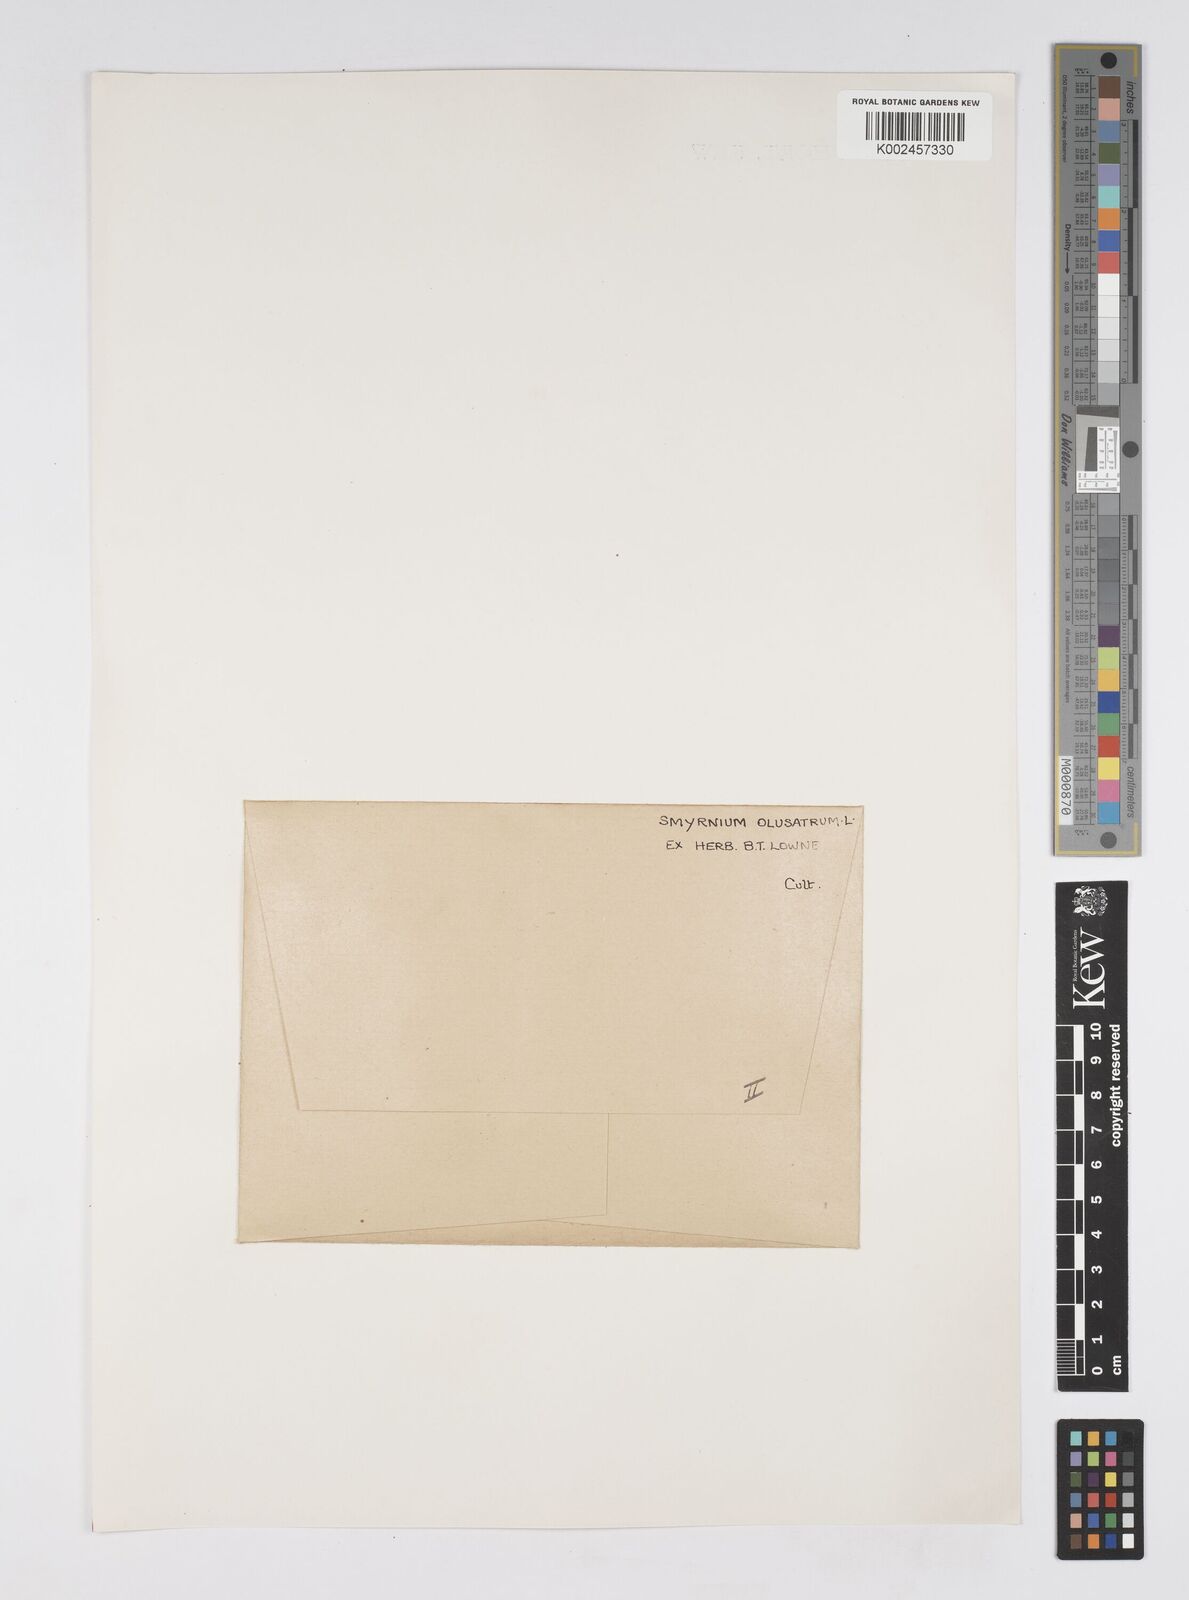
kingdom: Plantae
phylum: Tracheophyta
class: Magnoliopsida
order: Apiales
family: Apiaceae
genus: Smyrnium
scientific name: Smyrnium olusatrum
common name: Alexanders
